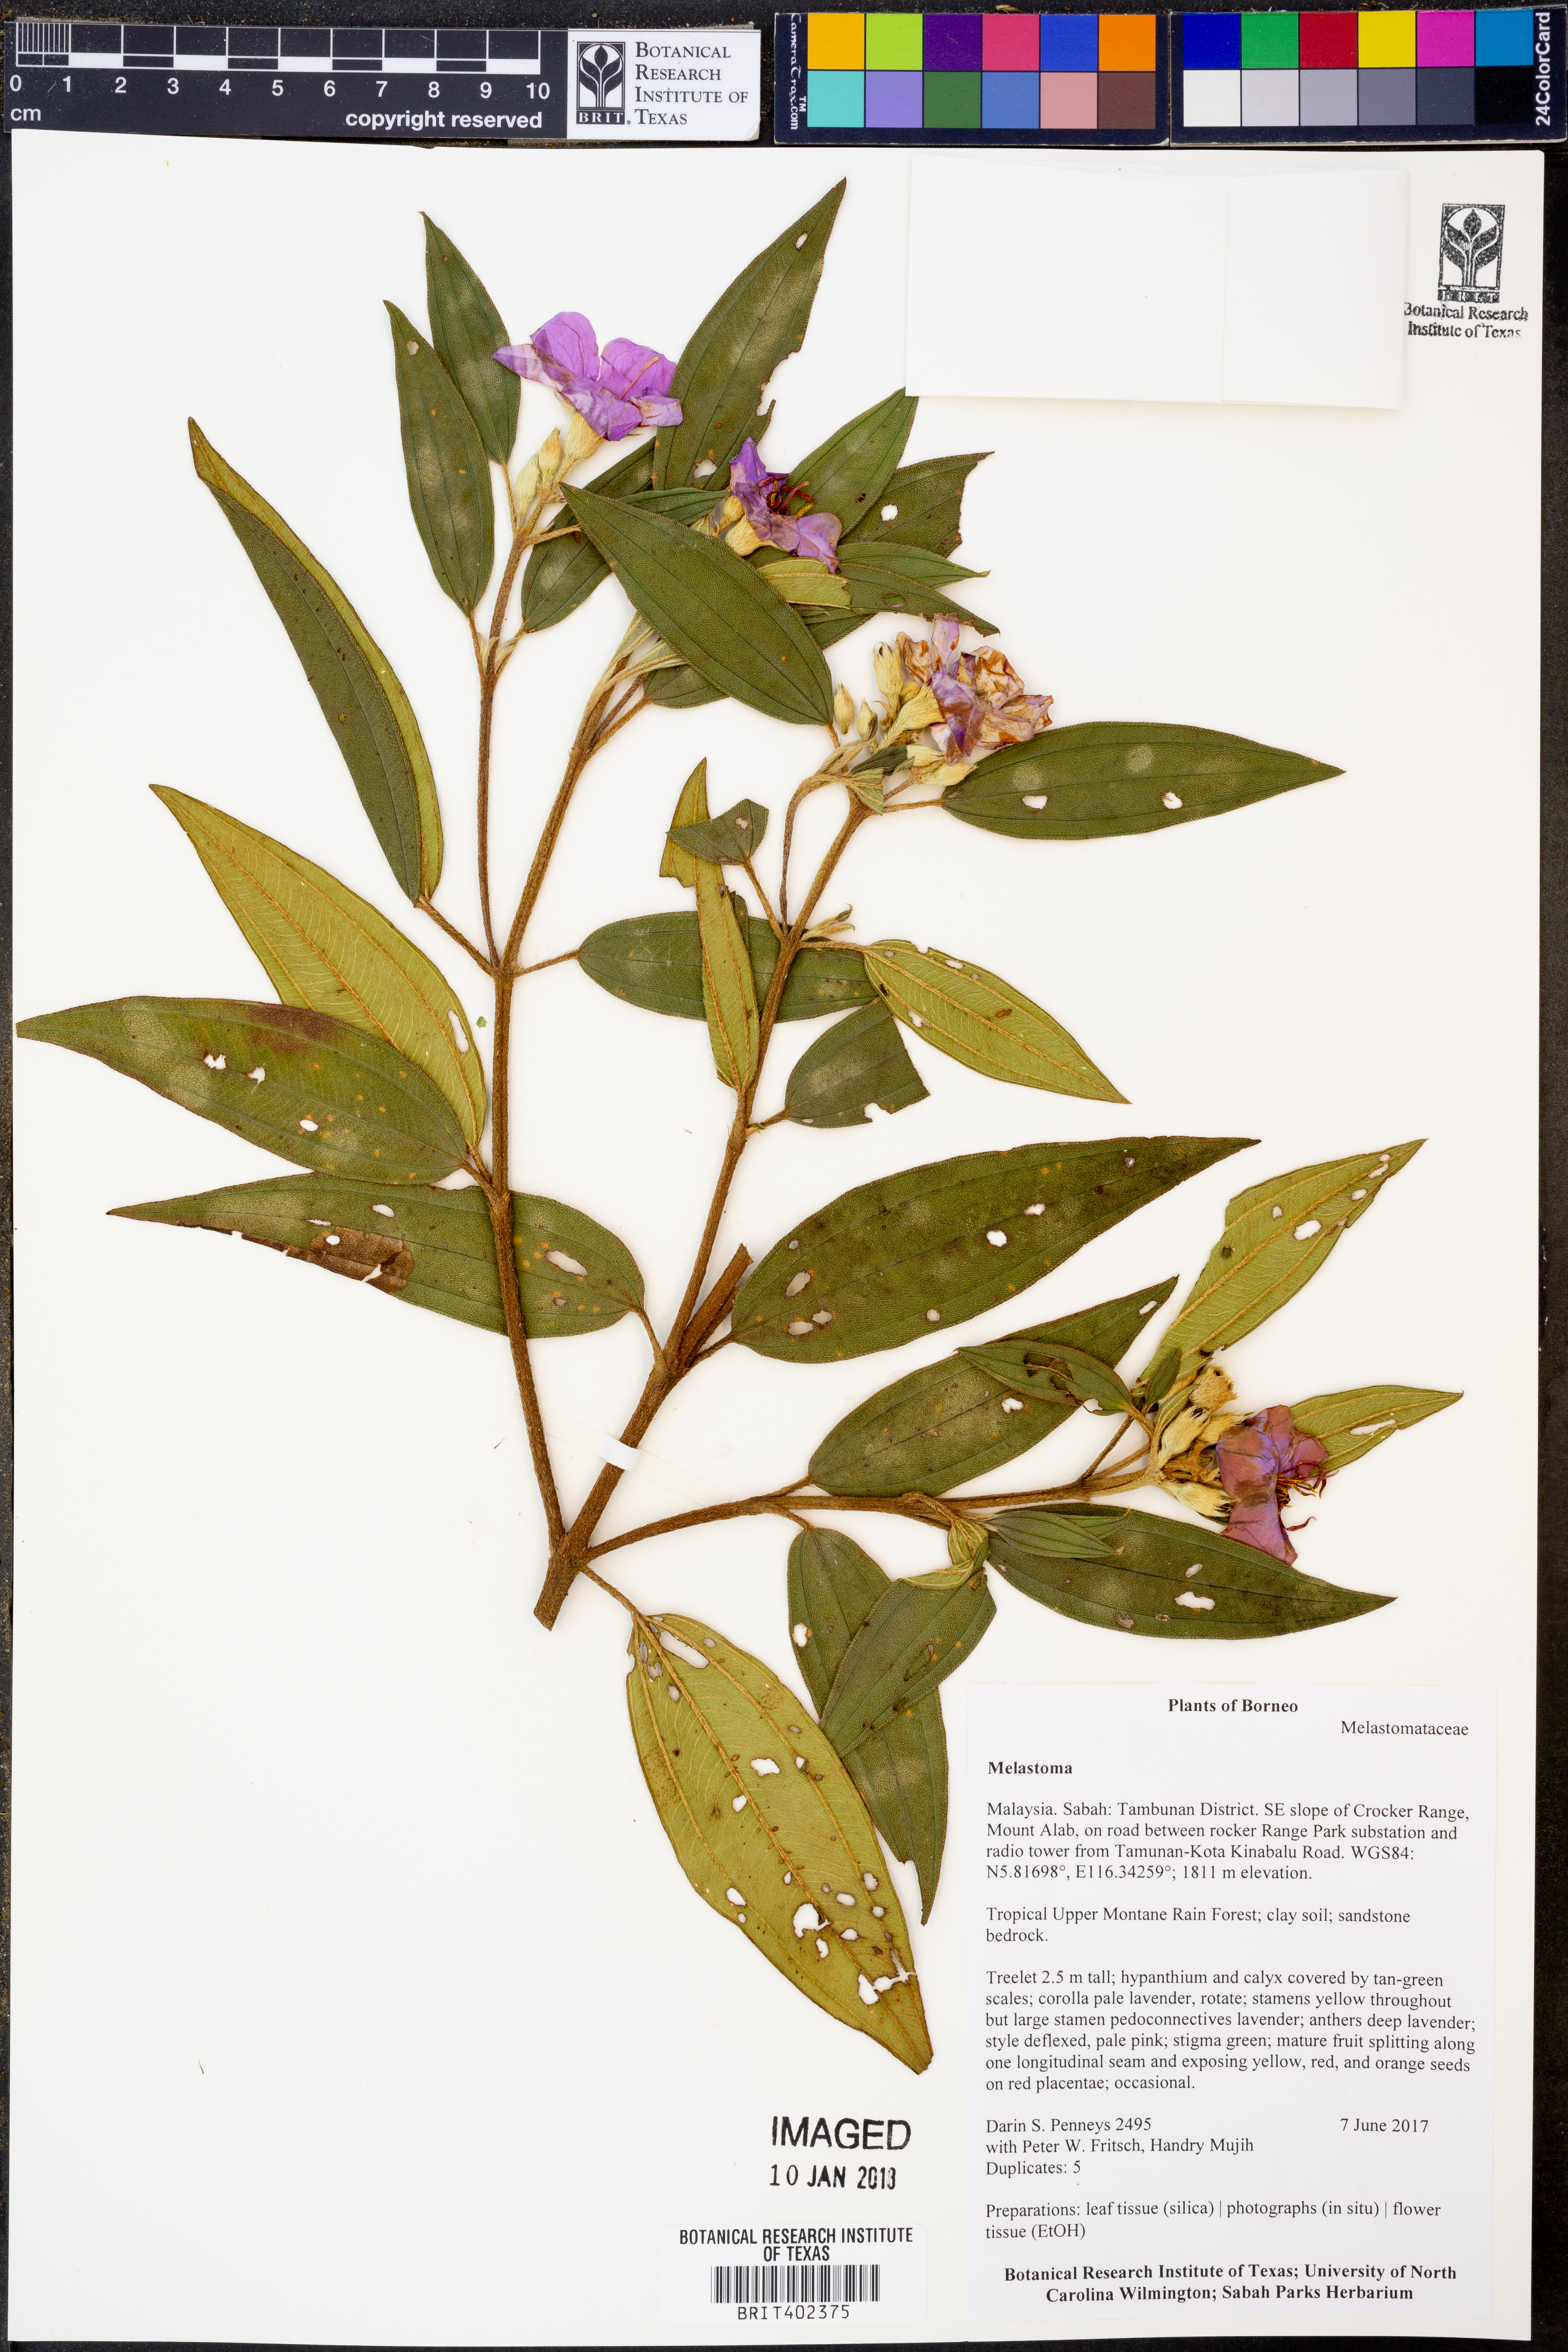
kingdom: Plantae
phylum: Tracheophyta
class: Magnoliopsida
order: Myrtales
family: Melastomataceae
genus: Melastoma
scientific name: Melastoma
